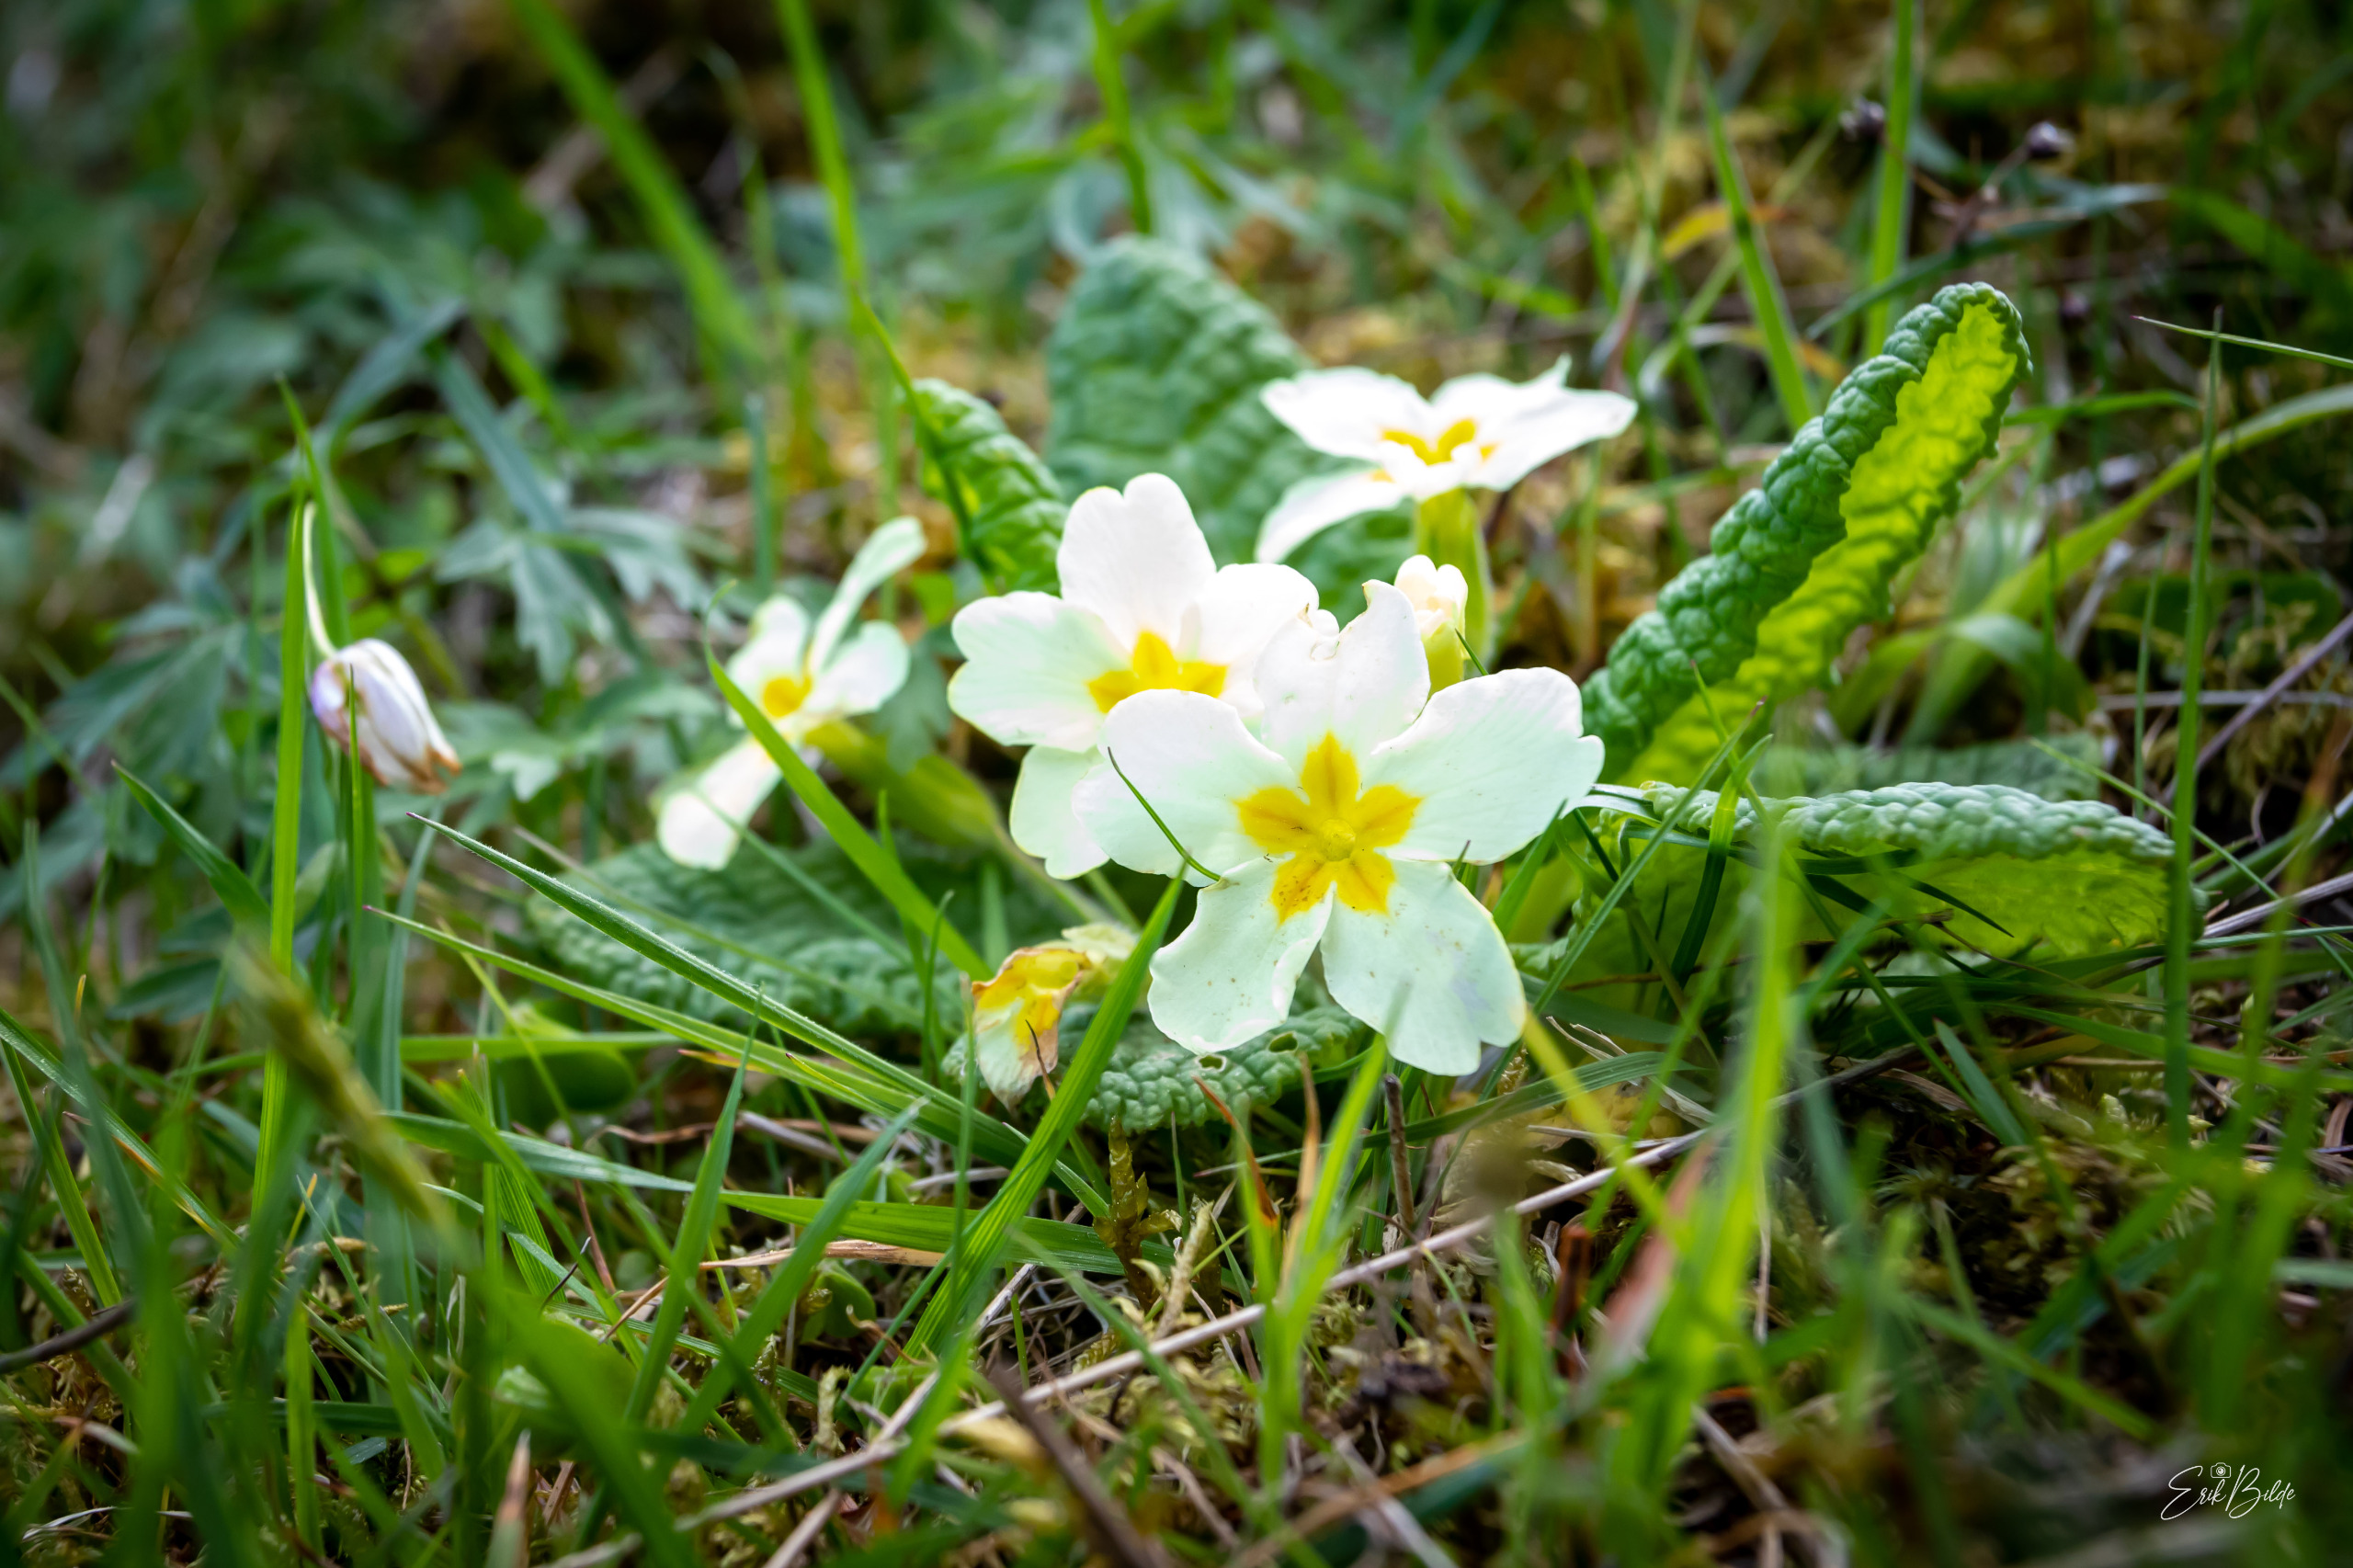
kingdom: Plantae
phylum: Tracheophyta
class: Magnoliopsida
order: Ericales
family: Primulaceae
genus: Primula
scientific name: Primula vulgaris
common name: Storblomstret kodriver
